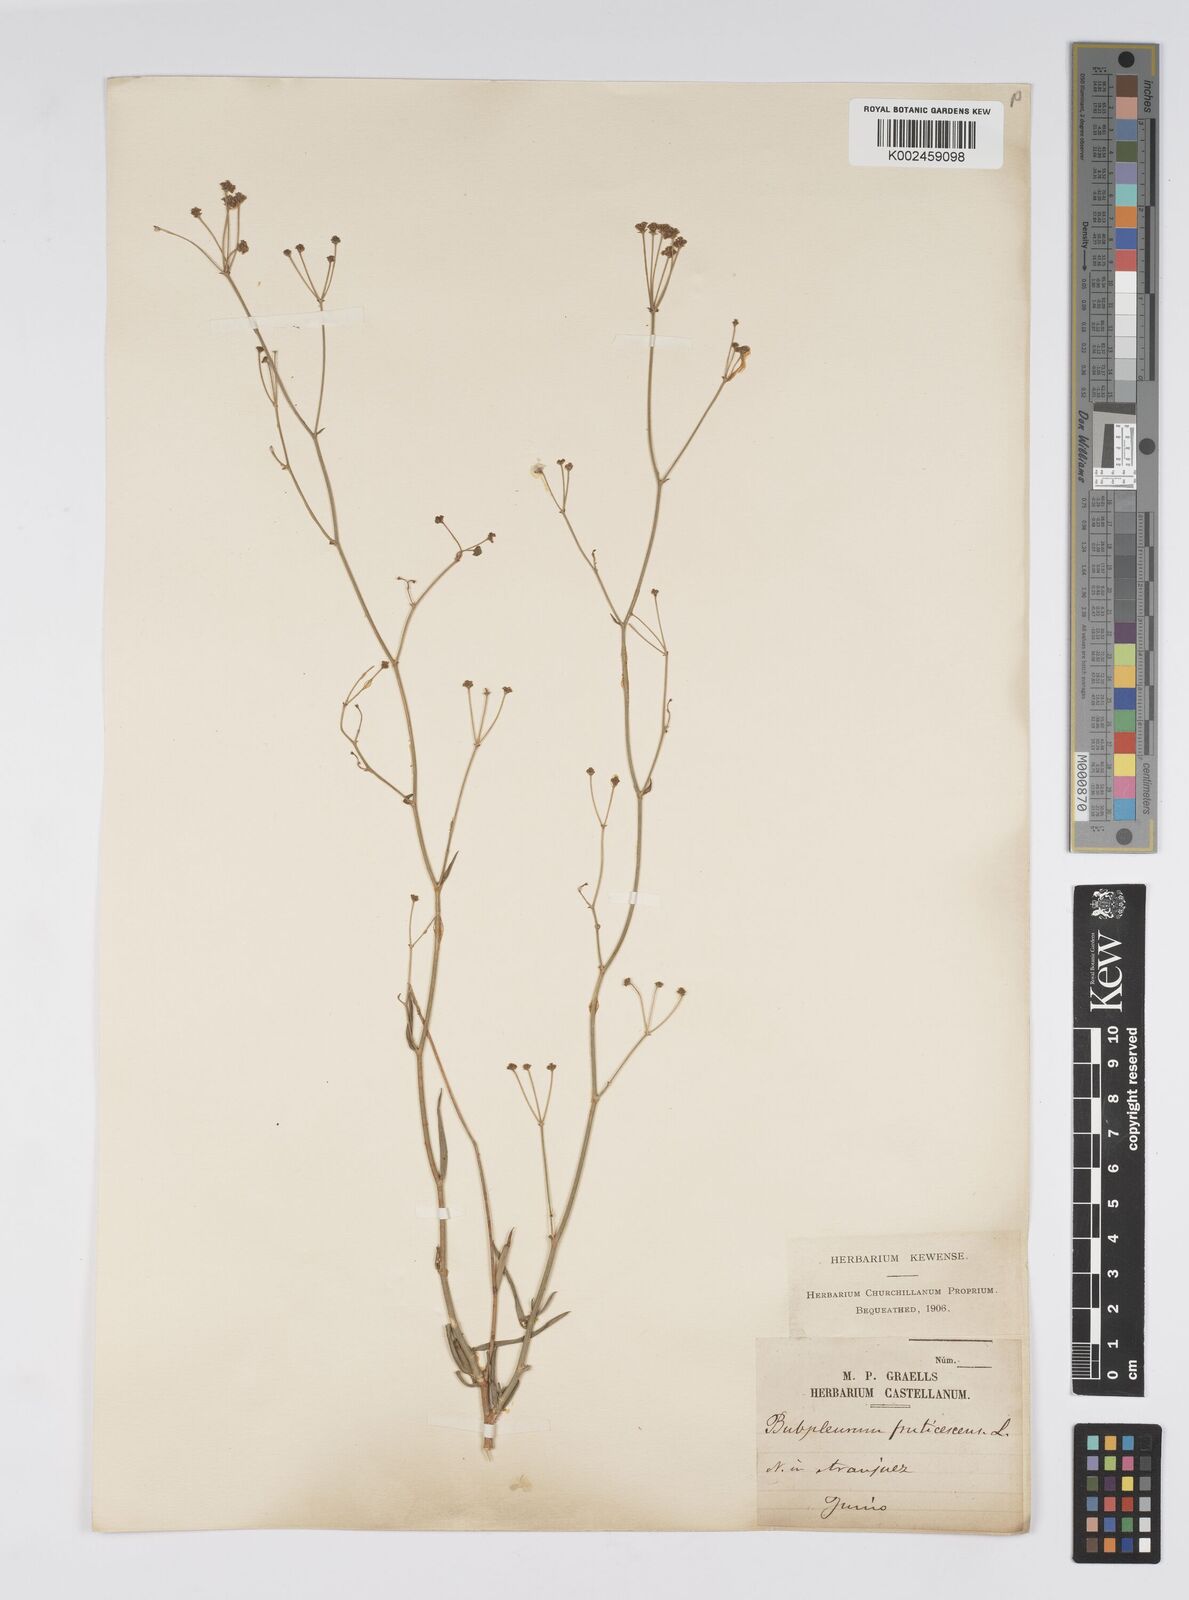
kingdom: Plantae
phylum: Tracheophyta
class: Magnoliopsida
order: Apiales
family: Apiaceae
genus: Bupleurum
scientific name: Bupleurum fruticescens
